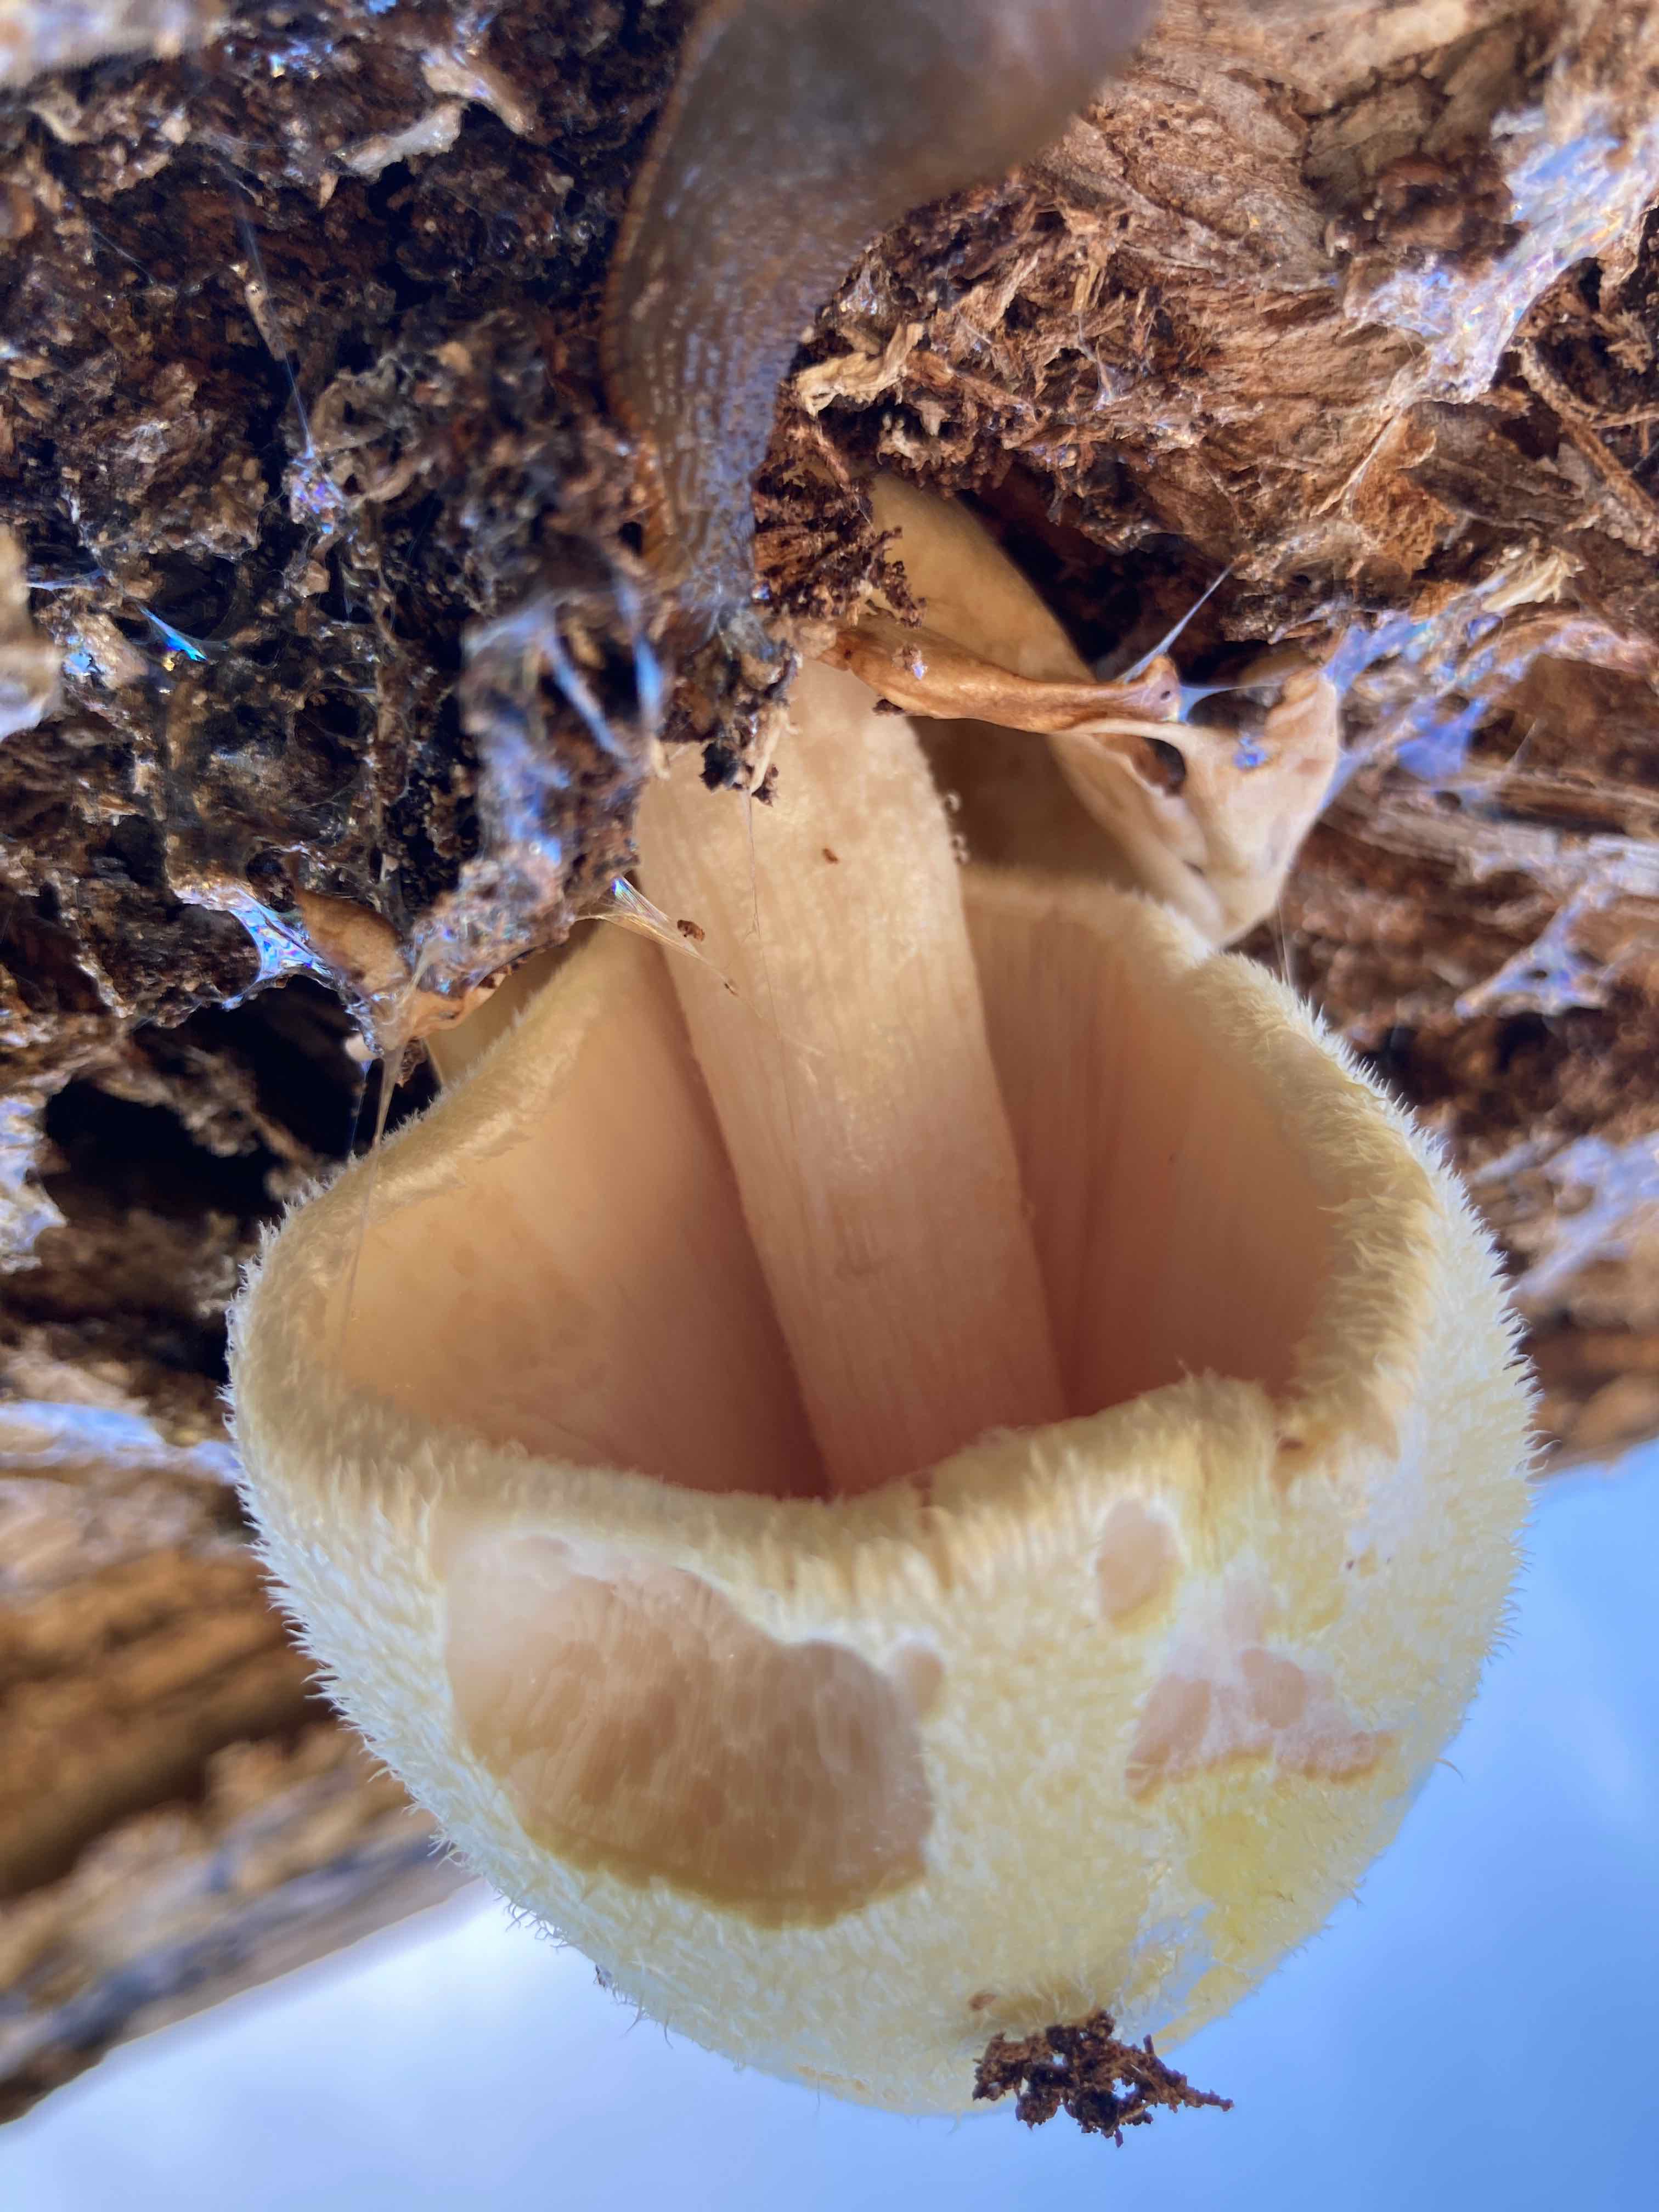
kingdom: Fungi
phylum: Basidiomycota
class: Agaricomycetes
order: Agaricales
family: Pluteaceae
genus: Volvariella
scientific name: Volvariella bombycina
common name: silkehåret posesvamp
